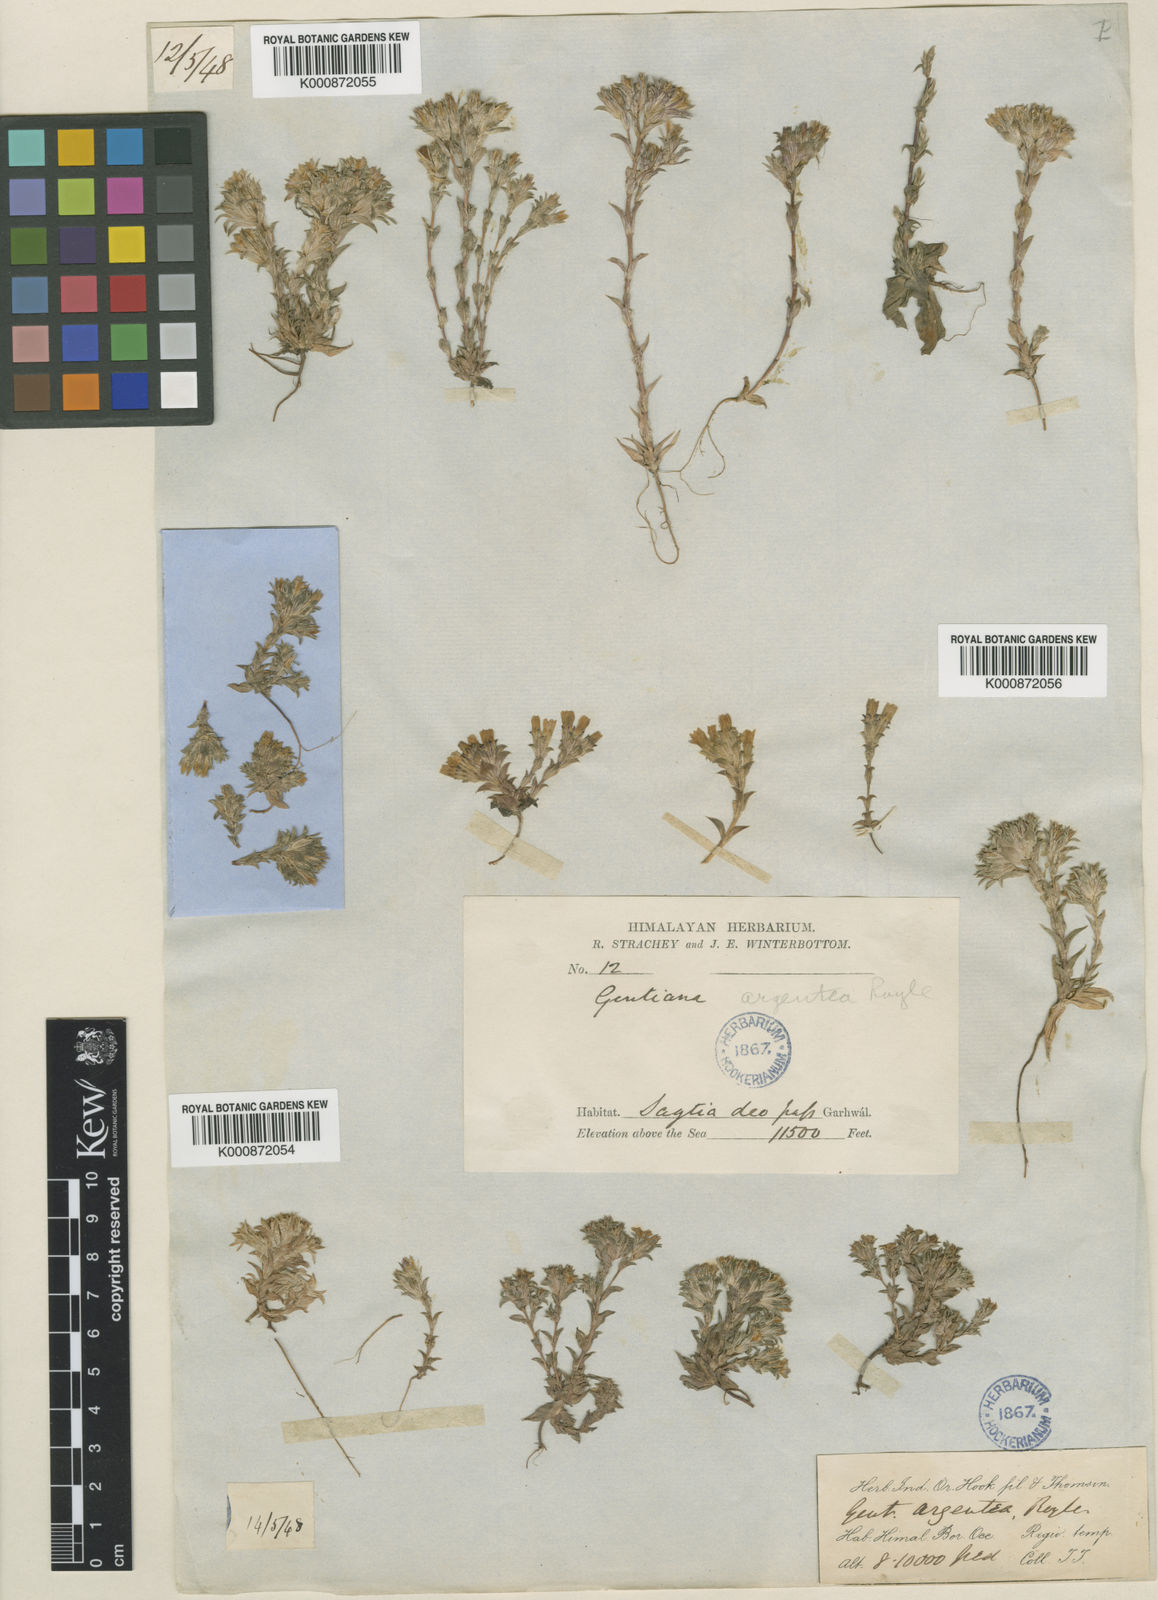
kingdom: Plantae
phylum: Tracheophyta
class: Magnoliopsida
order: Gentianales
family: Gentianaceae
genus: Gentiana
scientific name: Gentiana argentea
